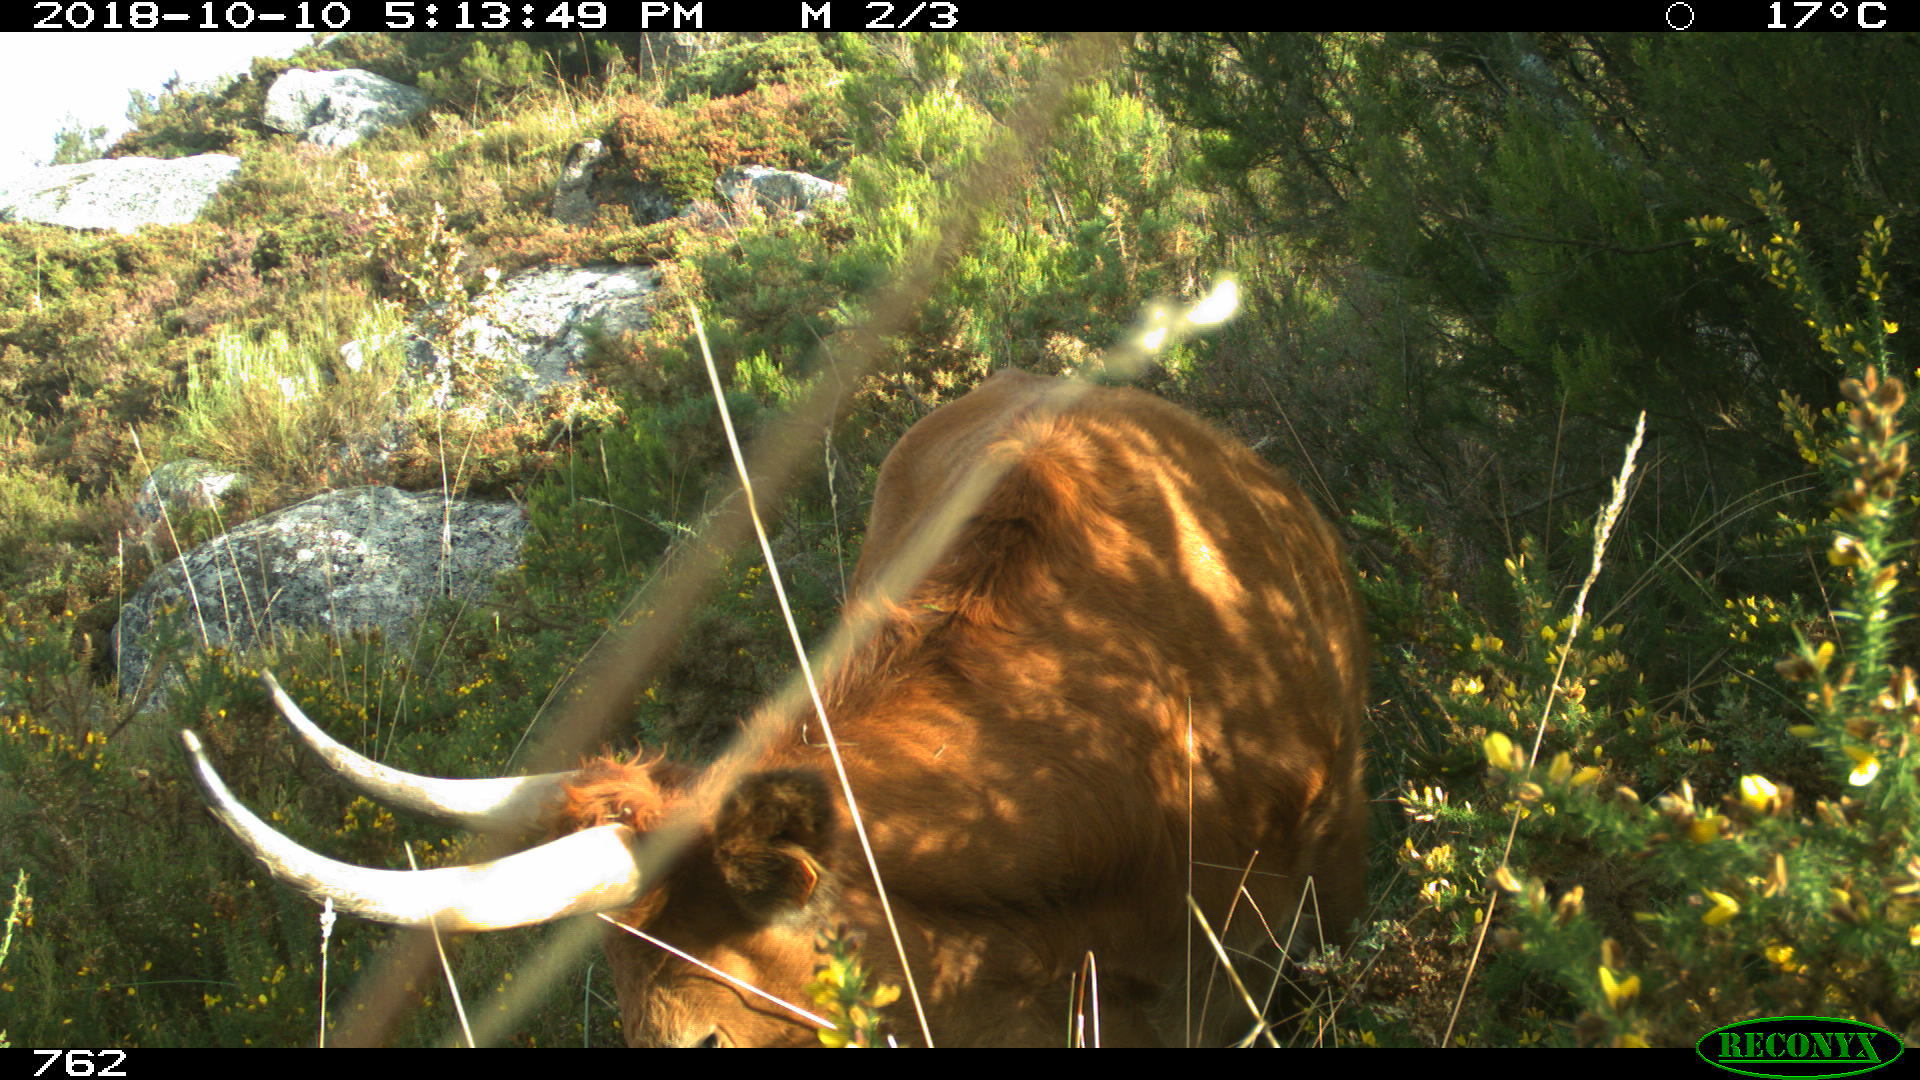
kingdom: Animalia
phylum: Chordata
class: Mammalia
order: Artiodactyla
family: Bovidae
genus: Bos
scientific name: Bos taurus
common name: Domesticated cattle
